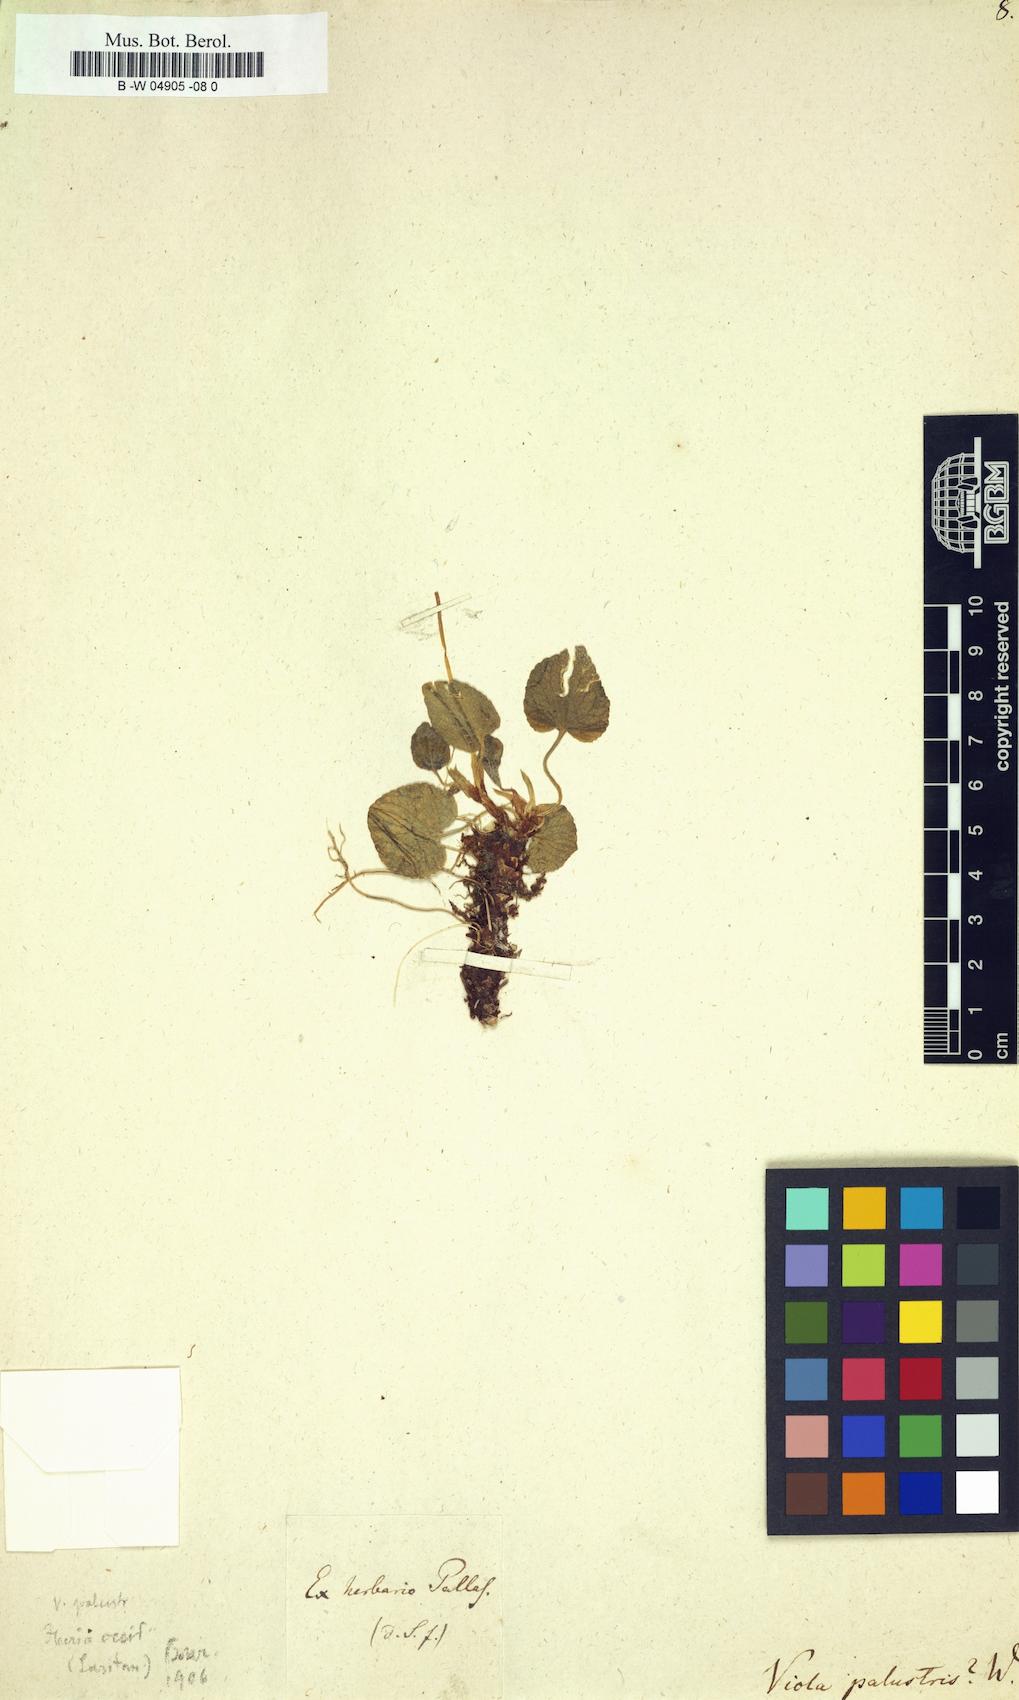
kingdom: Plantae
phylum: Tracheophyta
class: Magnoliopsida
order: Malpighiales
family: Violaceae
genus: Viola
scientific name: Viola palustris
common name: Marsh violet
